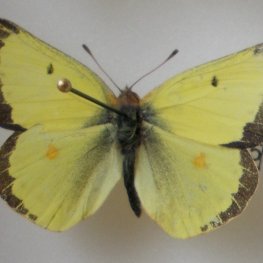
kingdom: Animalia
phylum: Arthropoda
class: Insecta
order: Lepidoptera
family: Pieridae
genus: Colias
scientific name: Colias philodice
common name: Clouded Sulphur
